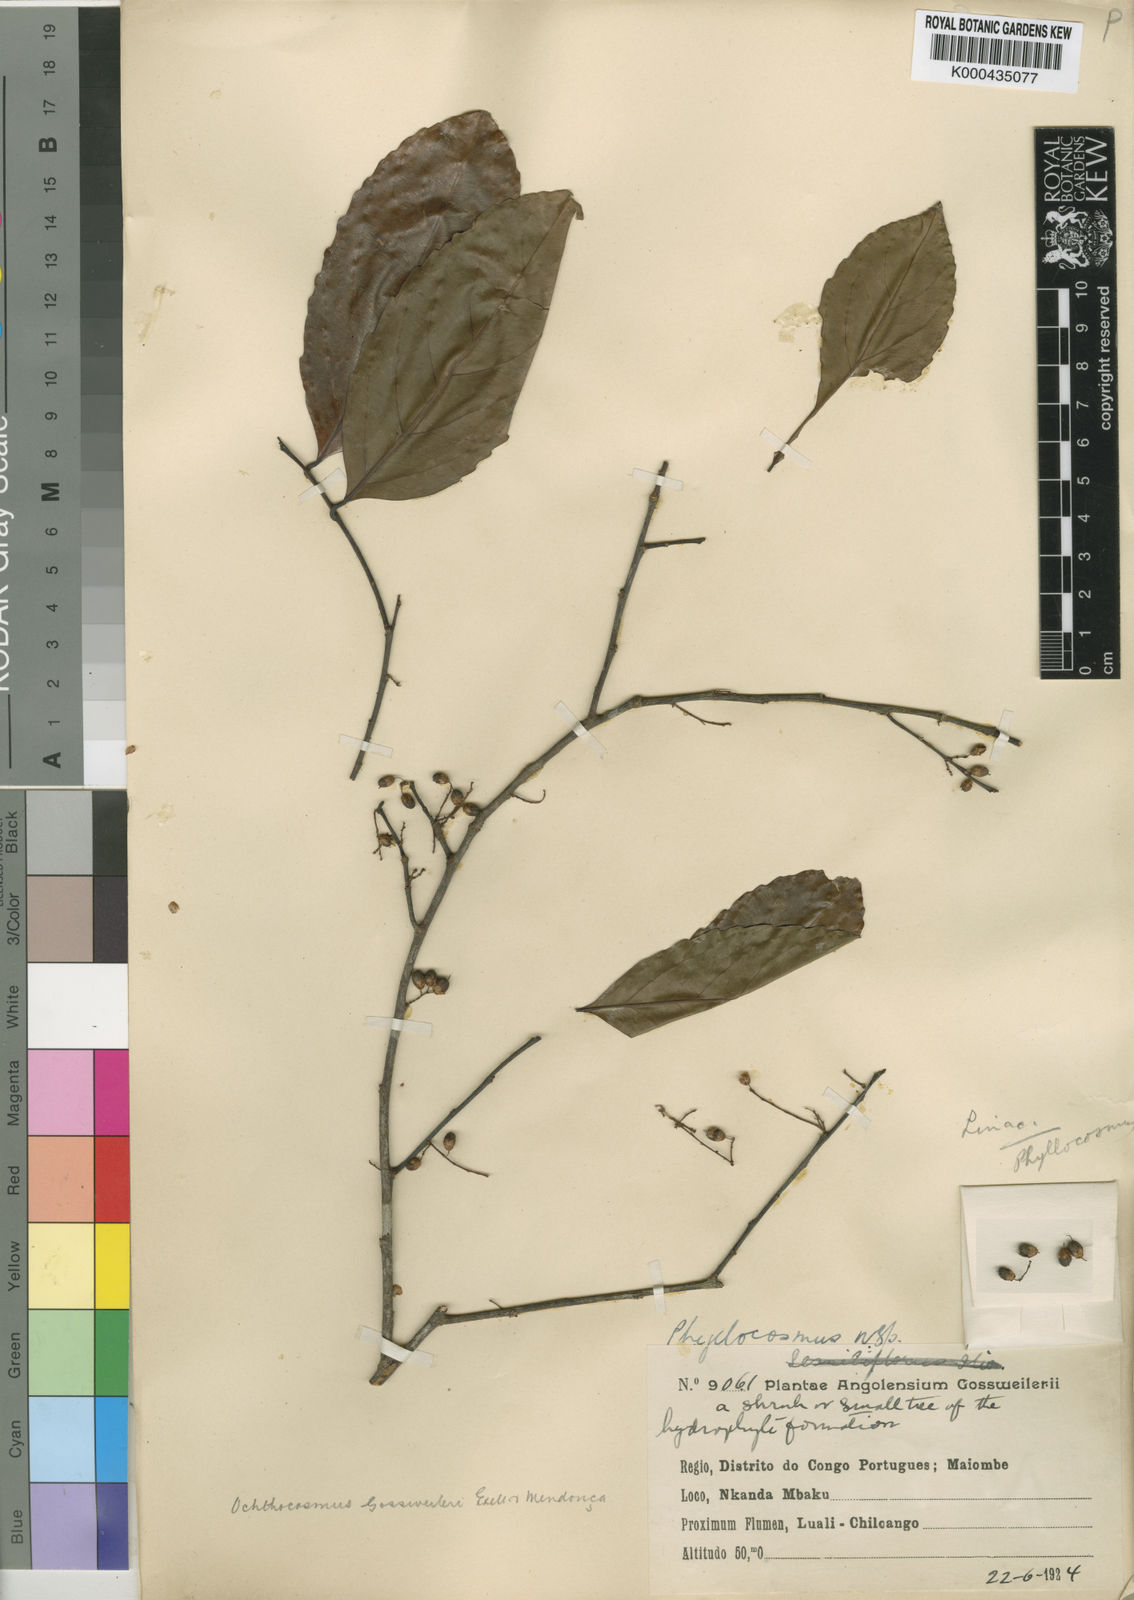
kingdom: Plantae
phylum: Tracheophyta
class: Magnoliopsida
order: Malpighiales
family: Ixonanthaceae
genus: Phyllocosmus
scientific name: Phyllocosmus
